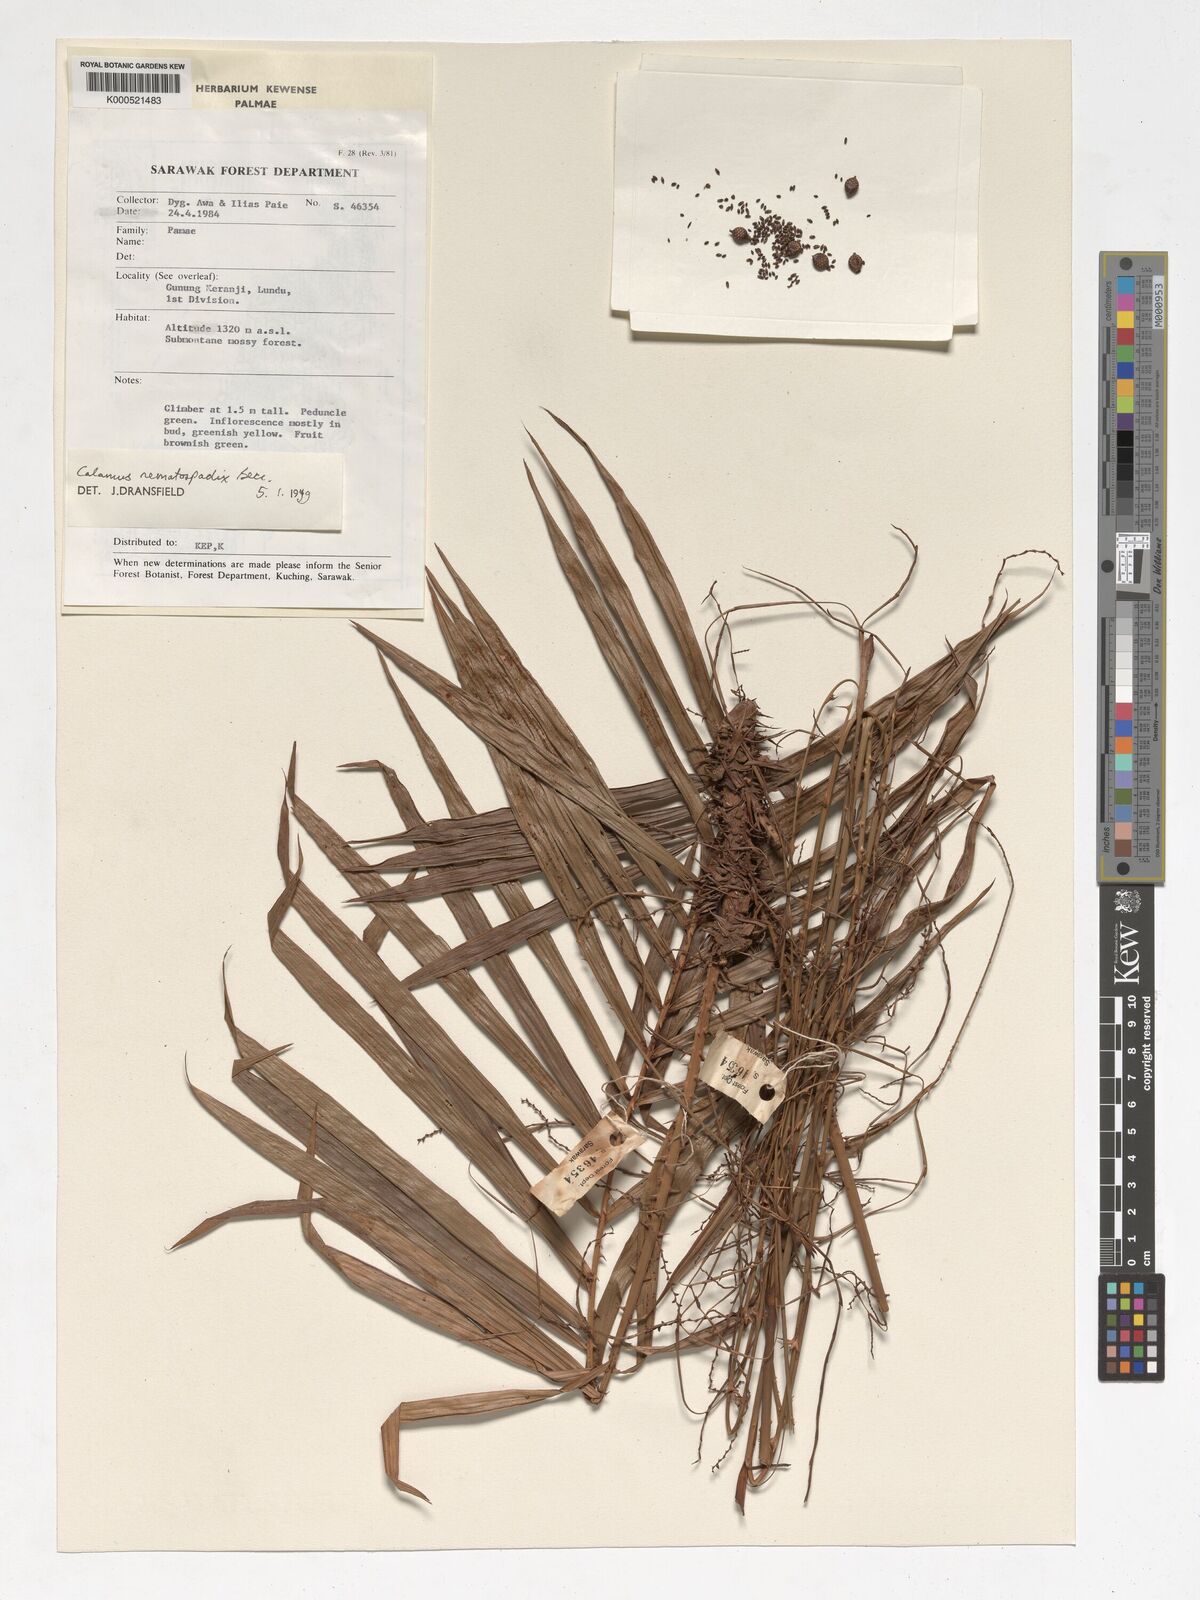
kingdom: Plantae
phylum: Tracheophyta
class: Liliopsida
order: Arecales
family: Arecaceae
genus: Calamus
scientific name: Calamus nematospadix
